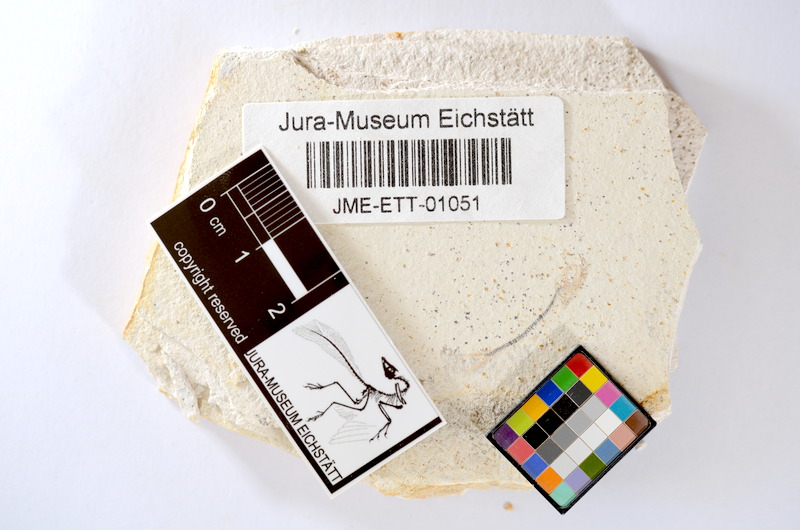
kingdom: Animalia
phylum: Chordata
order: Salmoniformes
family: Orthogonikleithridae
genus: Orthogonikleithrus
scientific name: Orthogonikleithrus hoelli
